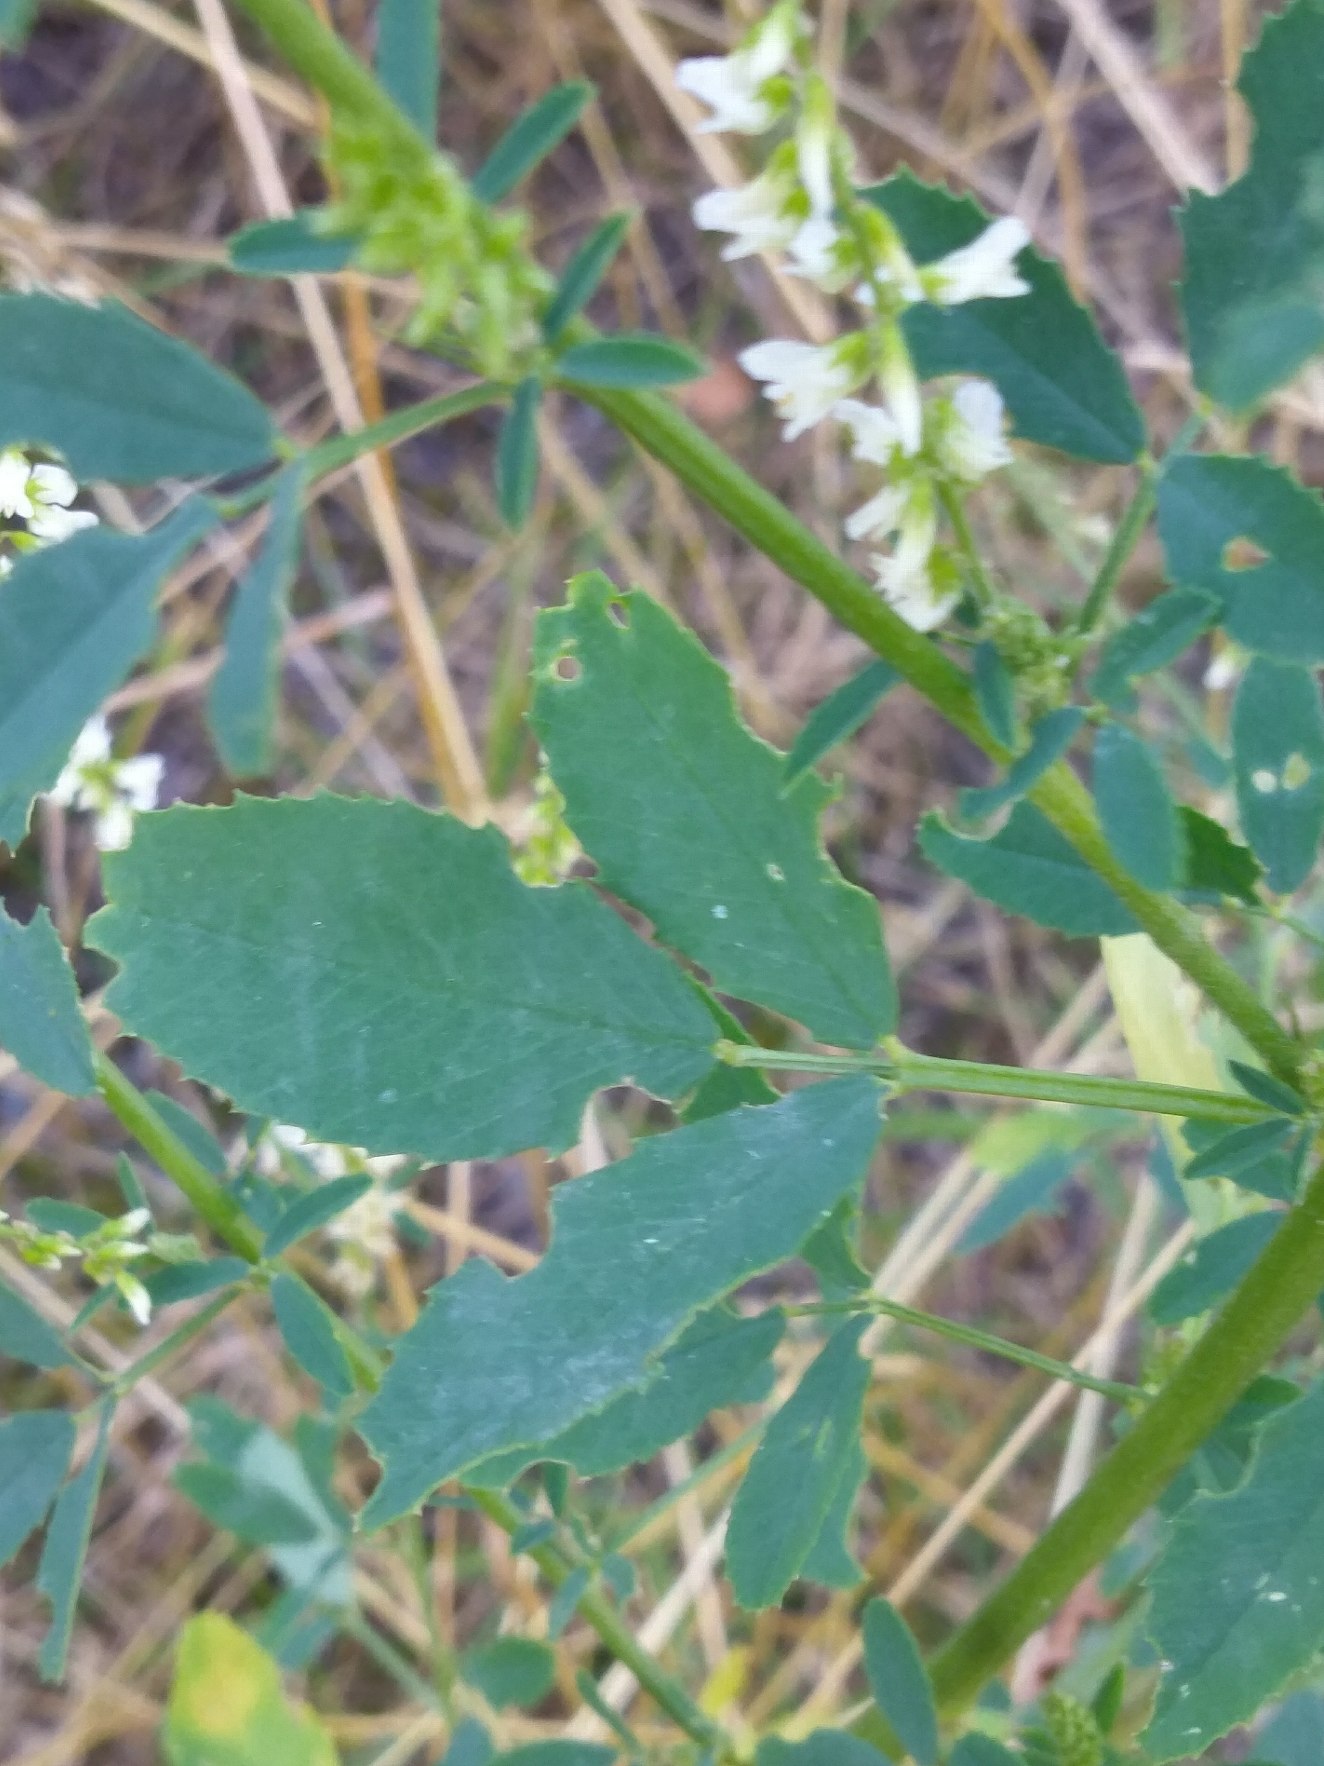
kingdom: Plantae
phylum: Tracheophyta
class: Magnoliopsida
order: Fabales
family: Fabaceae
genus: Melilotus
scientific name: Melilotus albus
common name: Hvid stenkløver
